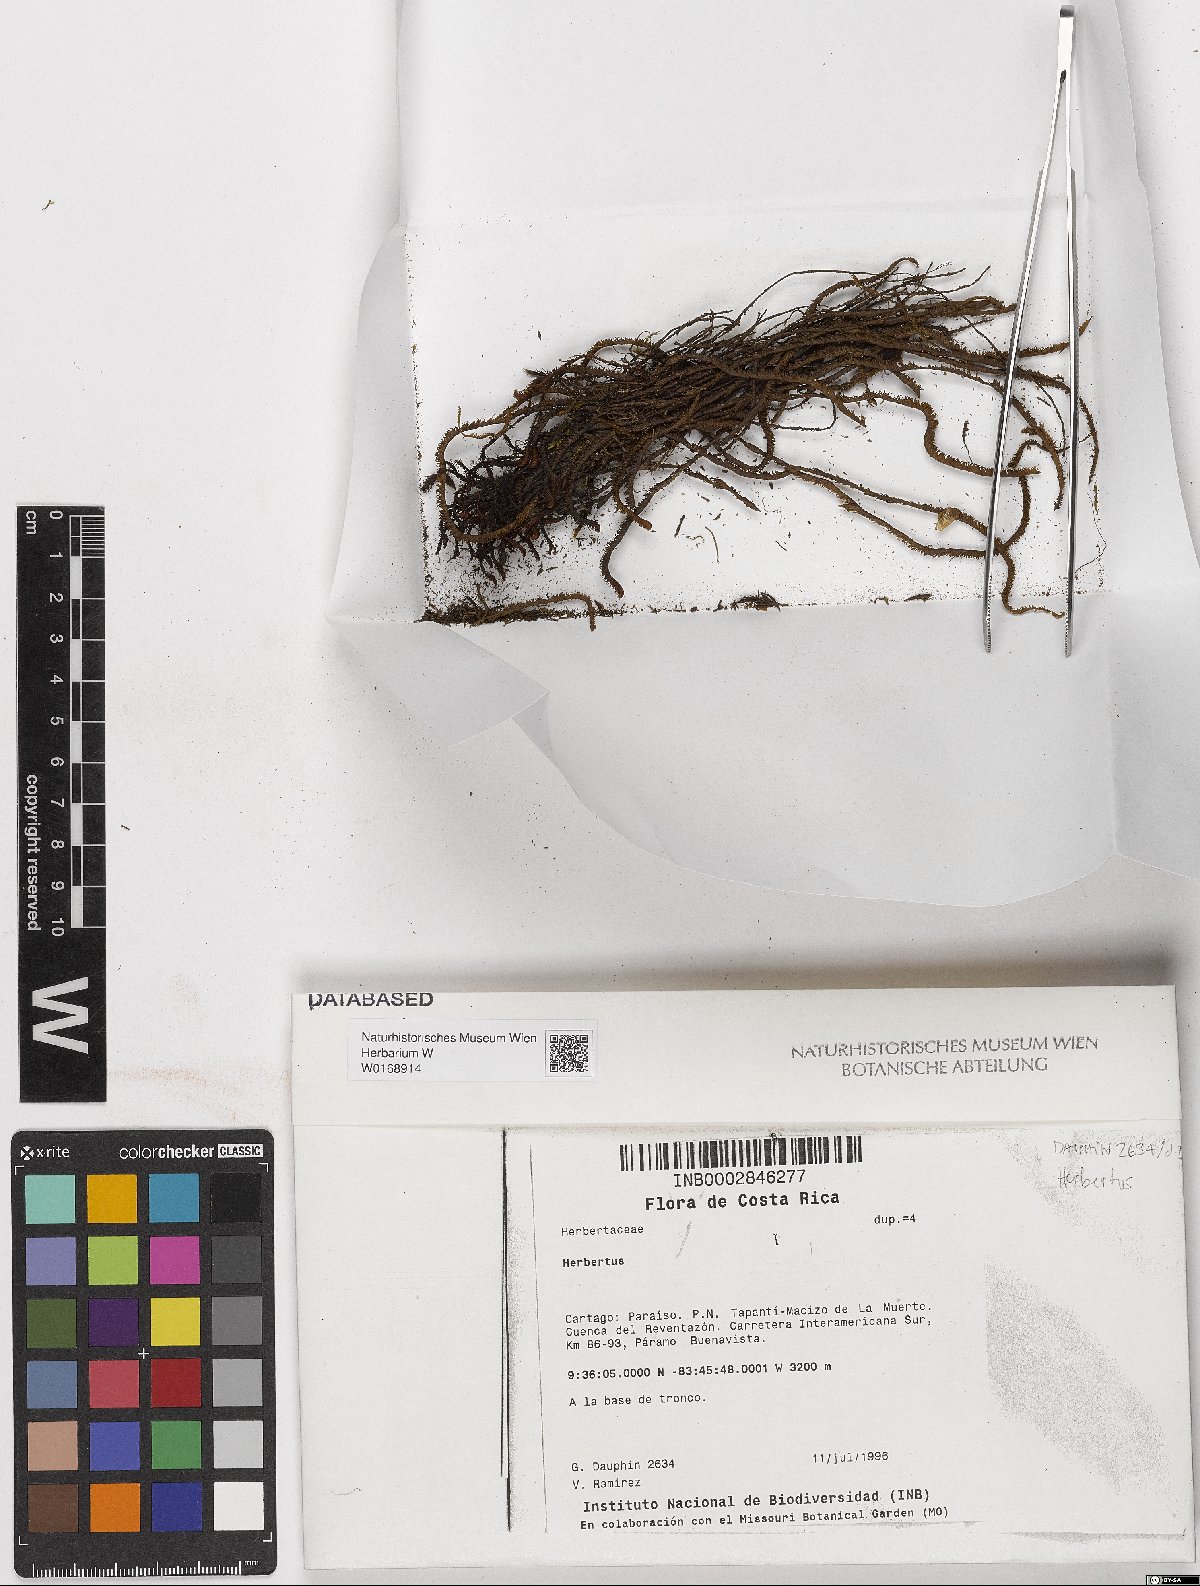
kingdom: Plantae
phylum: Marchantiophyta
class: Jungermanniopsida
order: Jungermanniales
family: Herbertaceae
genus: Herbertus
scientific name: Herbertus
